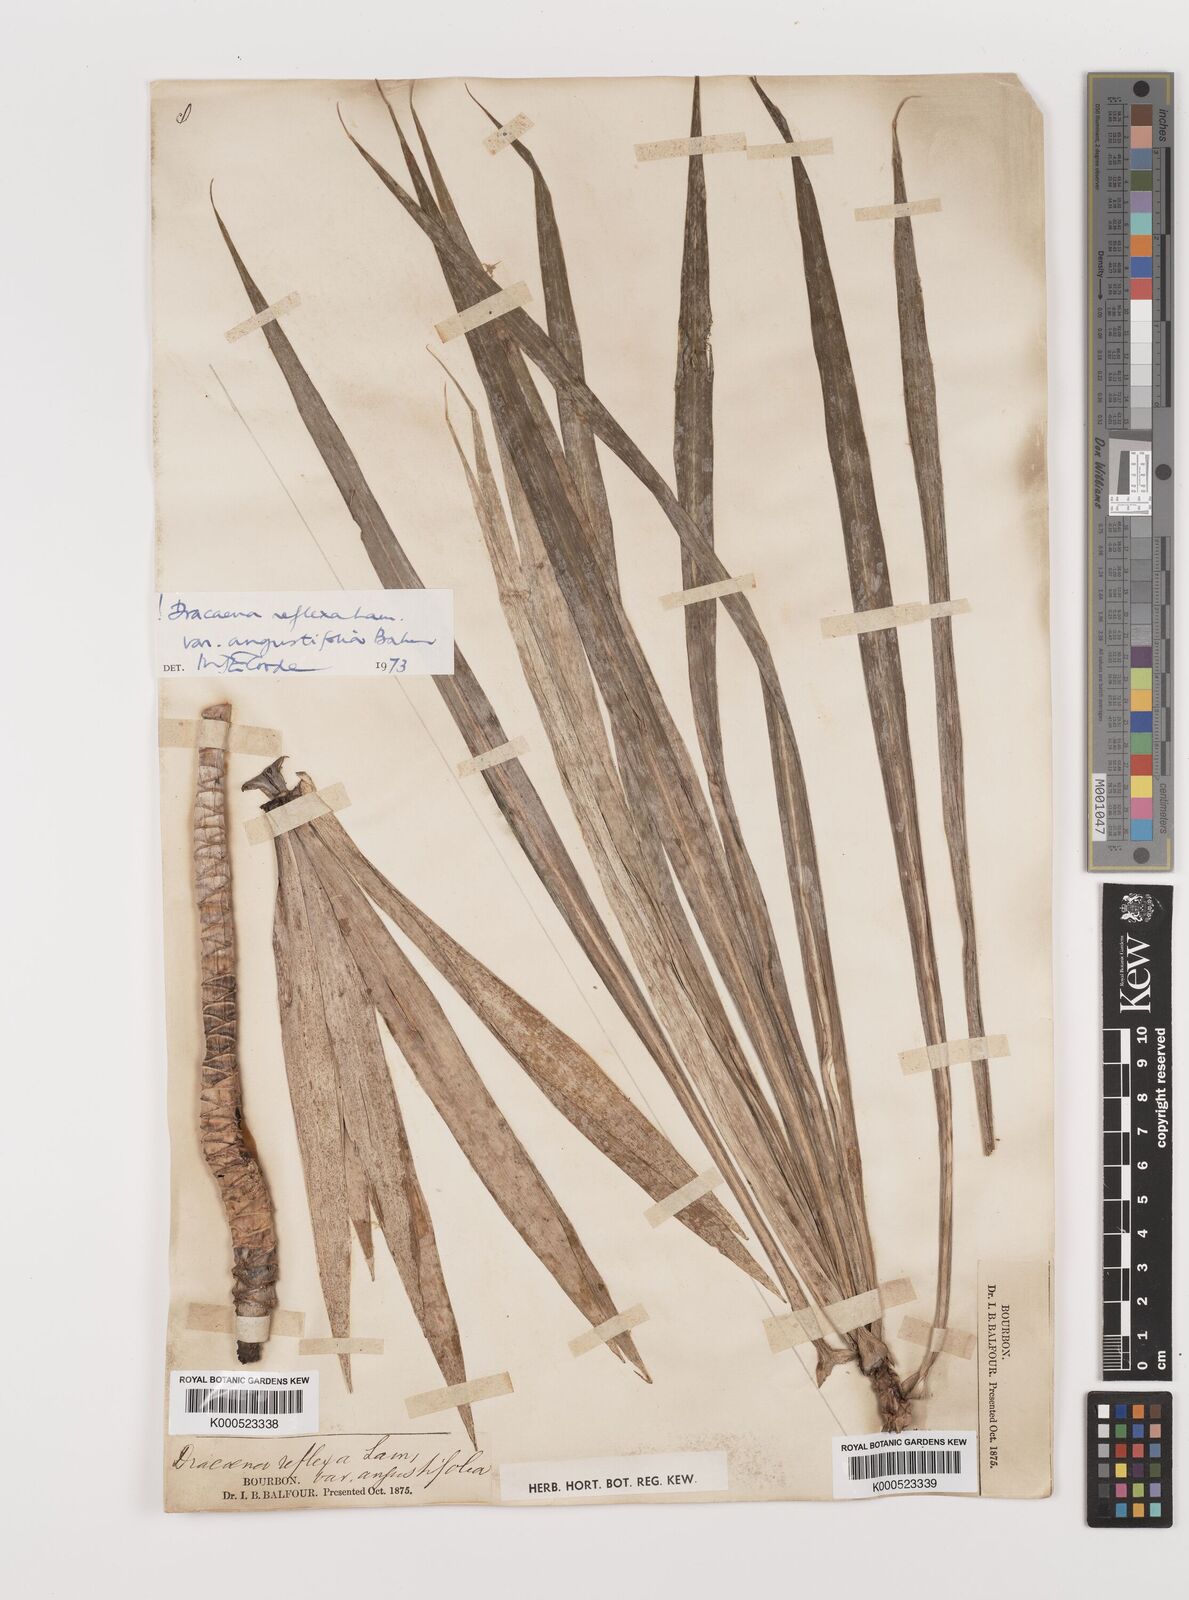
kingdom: Plantae
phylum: Tracheophyta
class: Liliopsida
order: Asparagales
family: Asparagaceae
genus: Dracaena
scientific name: Dracaena reflexa
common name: Song-of-india
